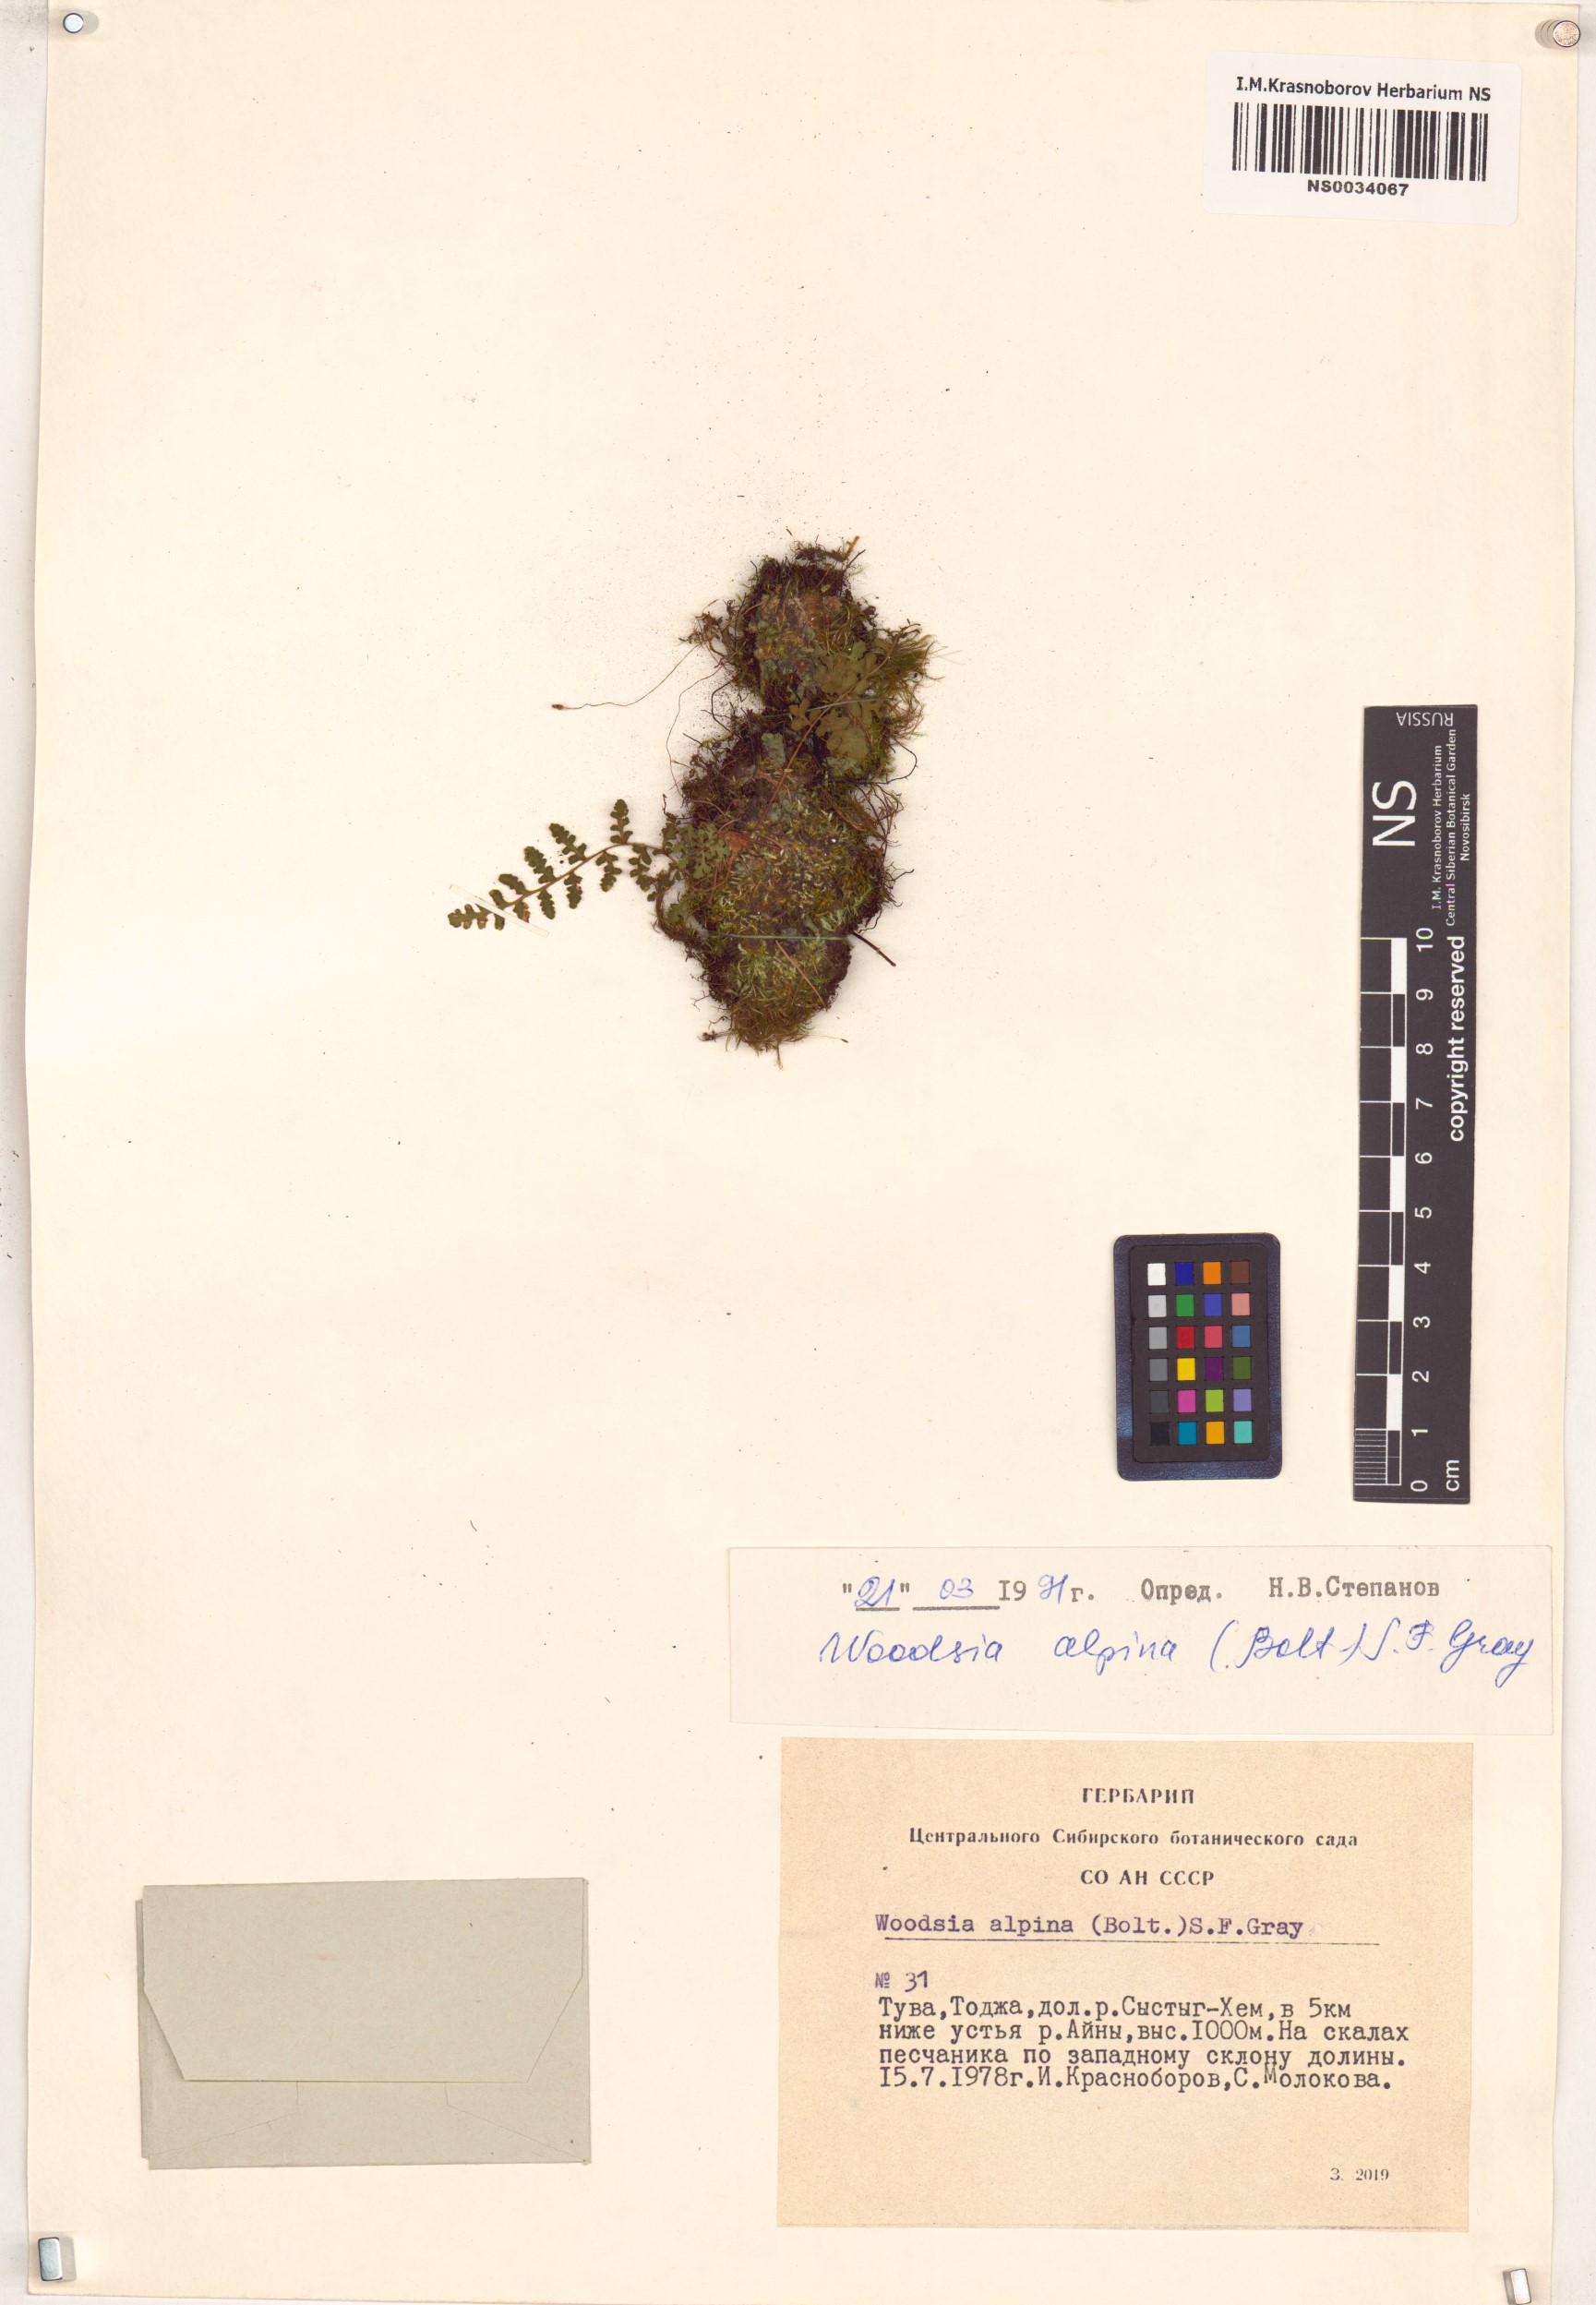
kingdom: Plantae
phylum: Tracheophyta
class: Polypodiopsida
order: Polypodiales
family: Woodsiaceae
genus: Woodsia
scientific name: Woodsia alpina
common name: Alpine woodsia
